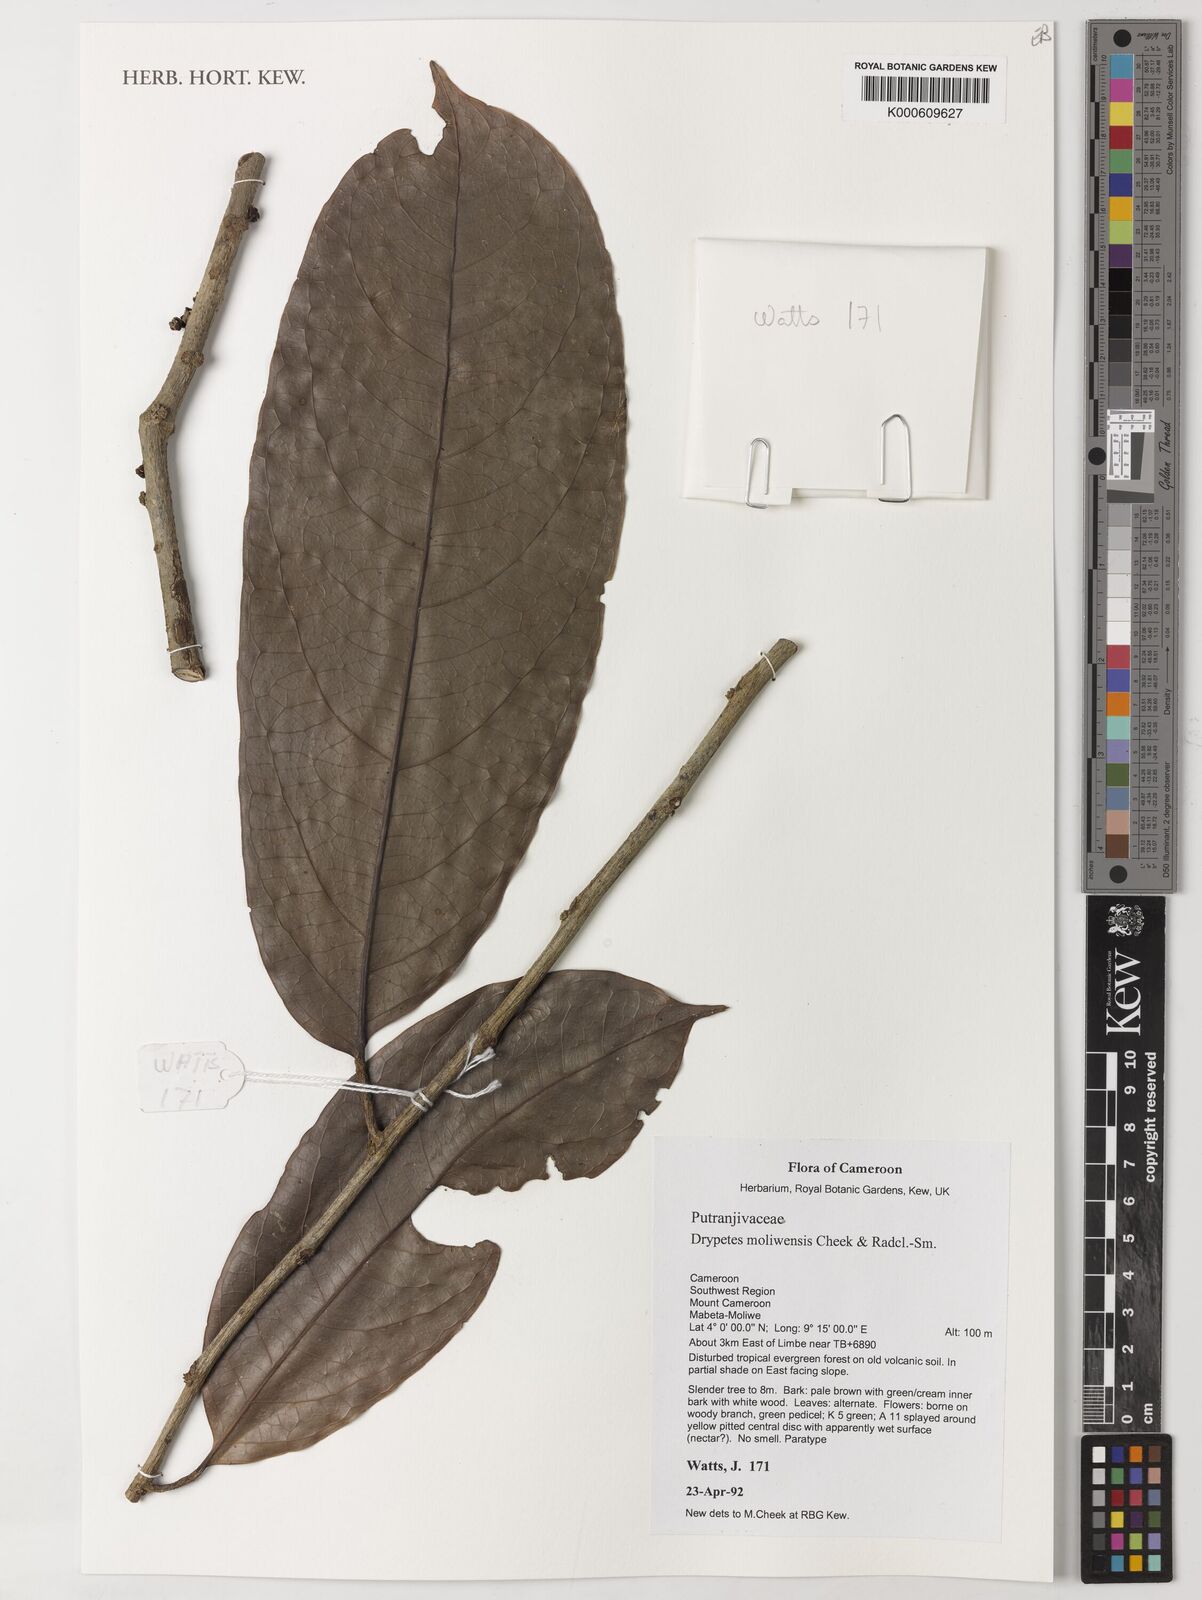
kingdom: Plantae
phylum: Tracheophyta
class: Magnoliopsida
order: Malpighiales
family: Putranjivaceae
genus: Drypetes
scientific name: Drypetes moliwensis
